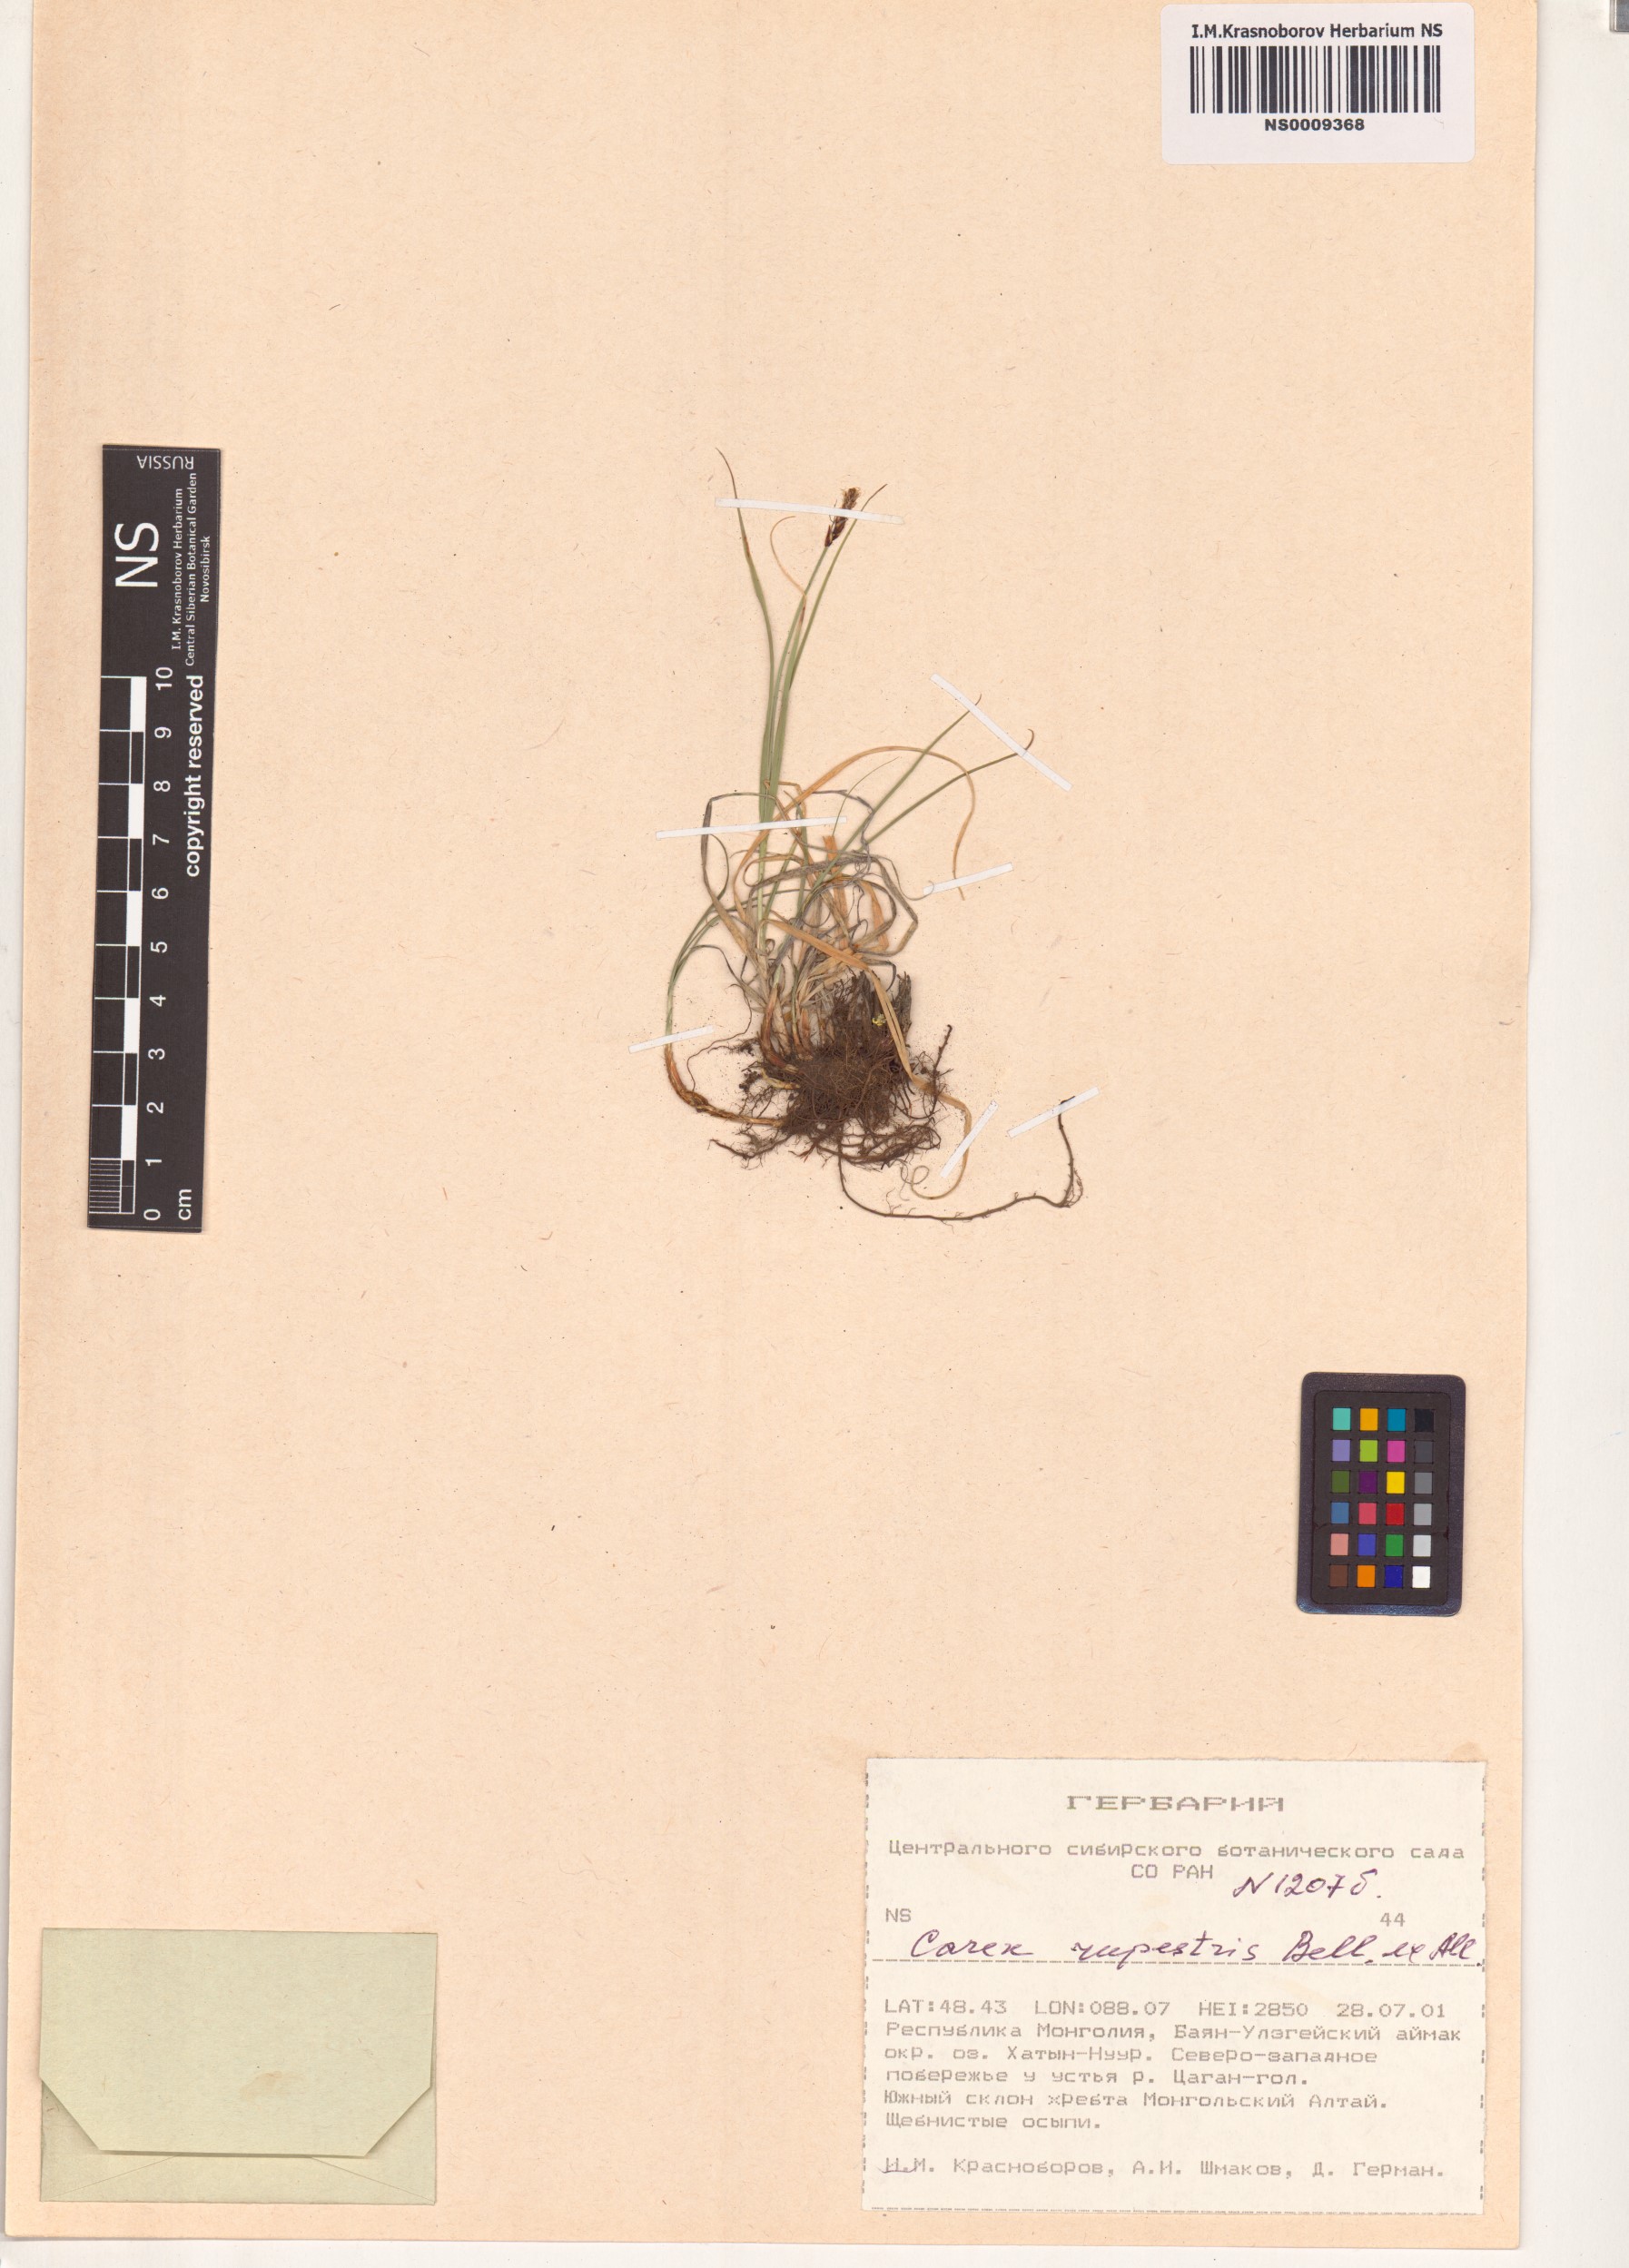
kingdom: Plantae
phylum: Tracheophyta
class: Liliopsida
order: Poales
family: Cyperaceae
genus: Carex
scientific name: Carex rupestris
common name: Rock sedge
